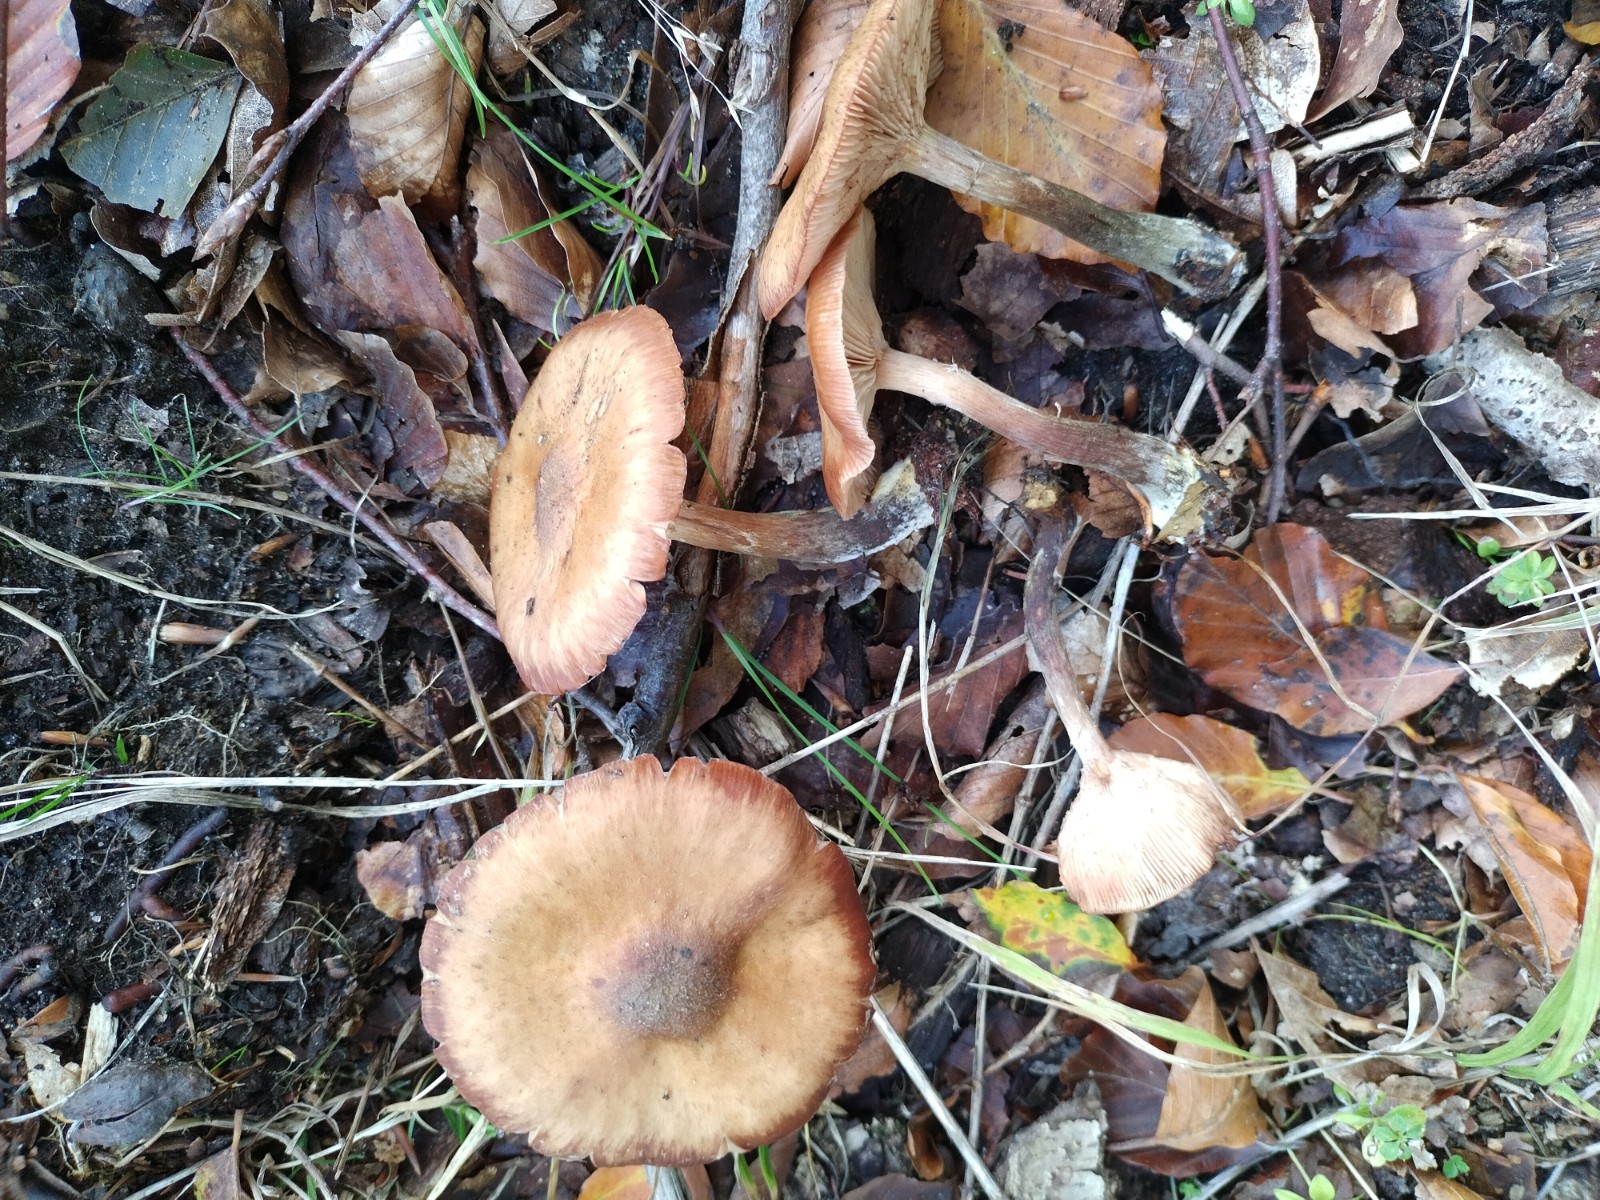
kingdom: Fungi
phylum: Basidiomycota
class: Agaricomycetes
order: Agaricales
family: Physalacriaceae
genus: Armillaria
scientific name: Armillaria mellea
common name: ægte honningsvamp
